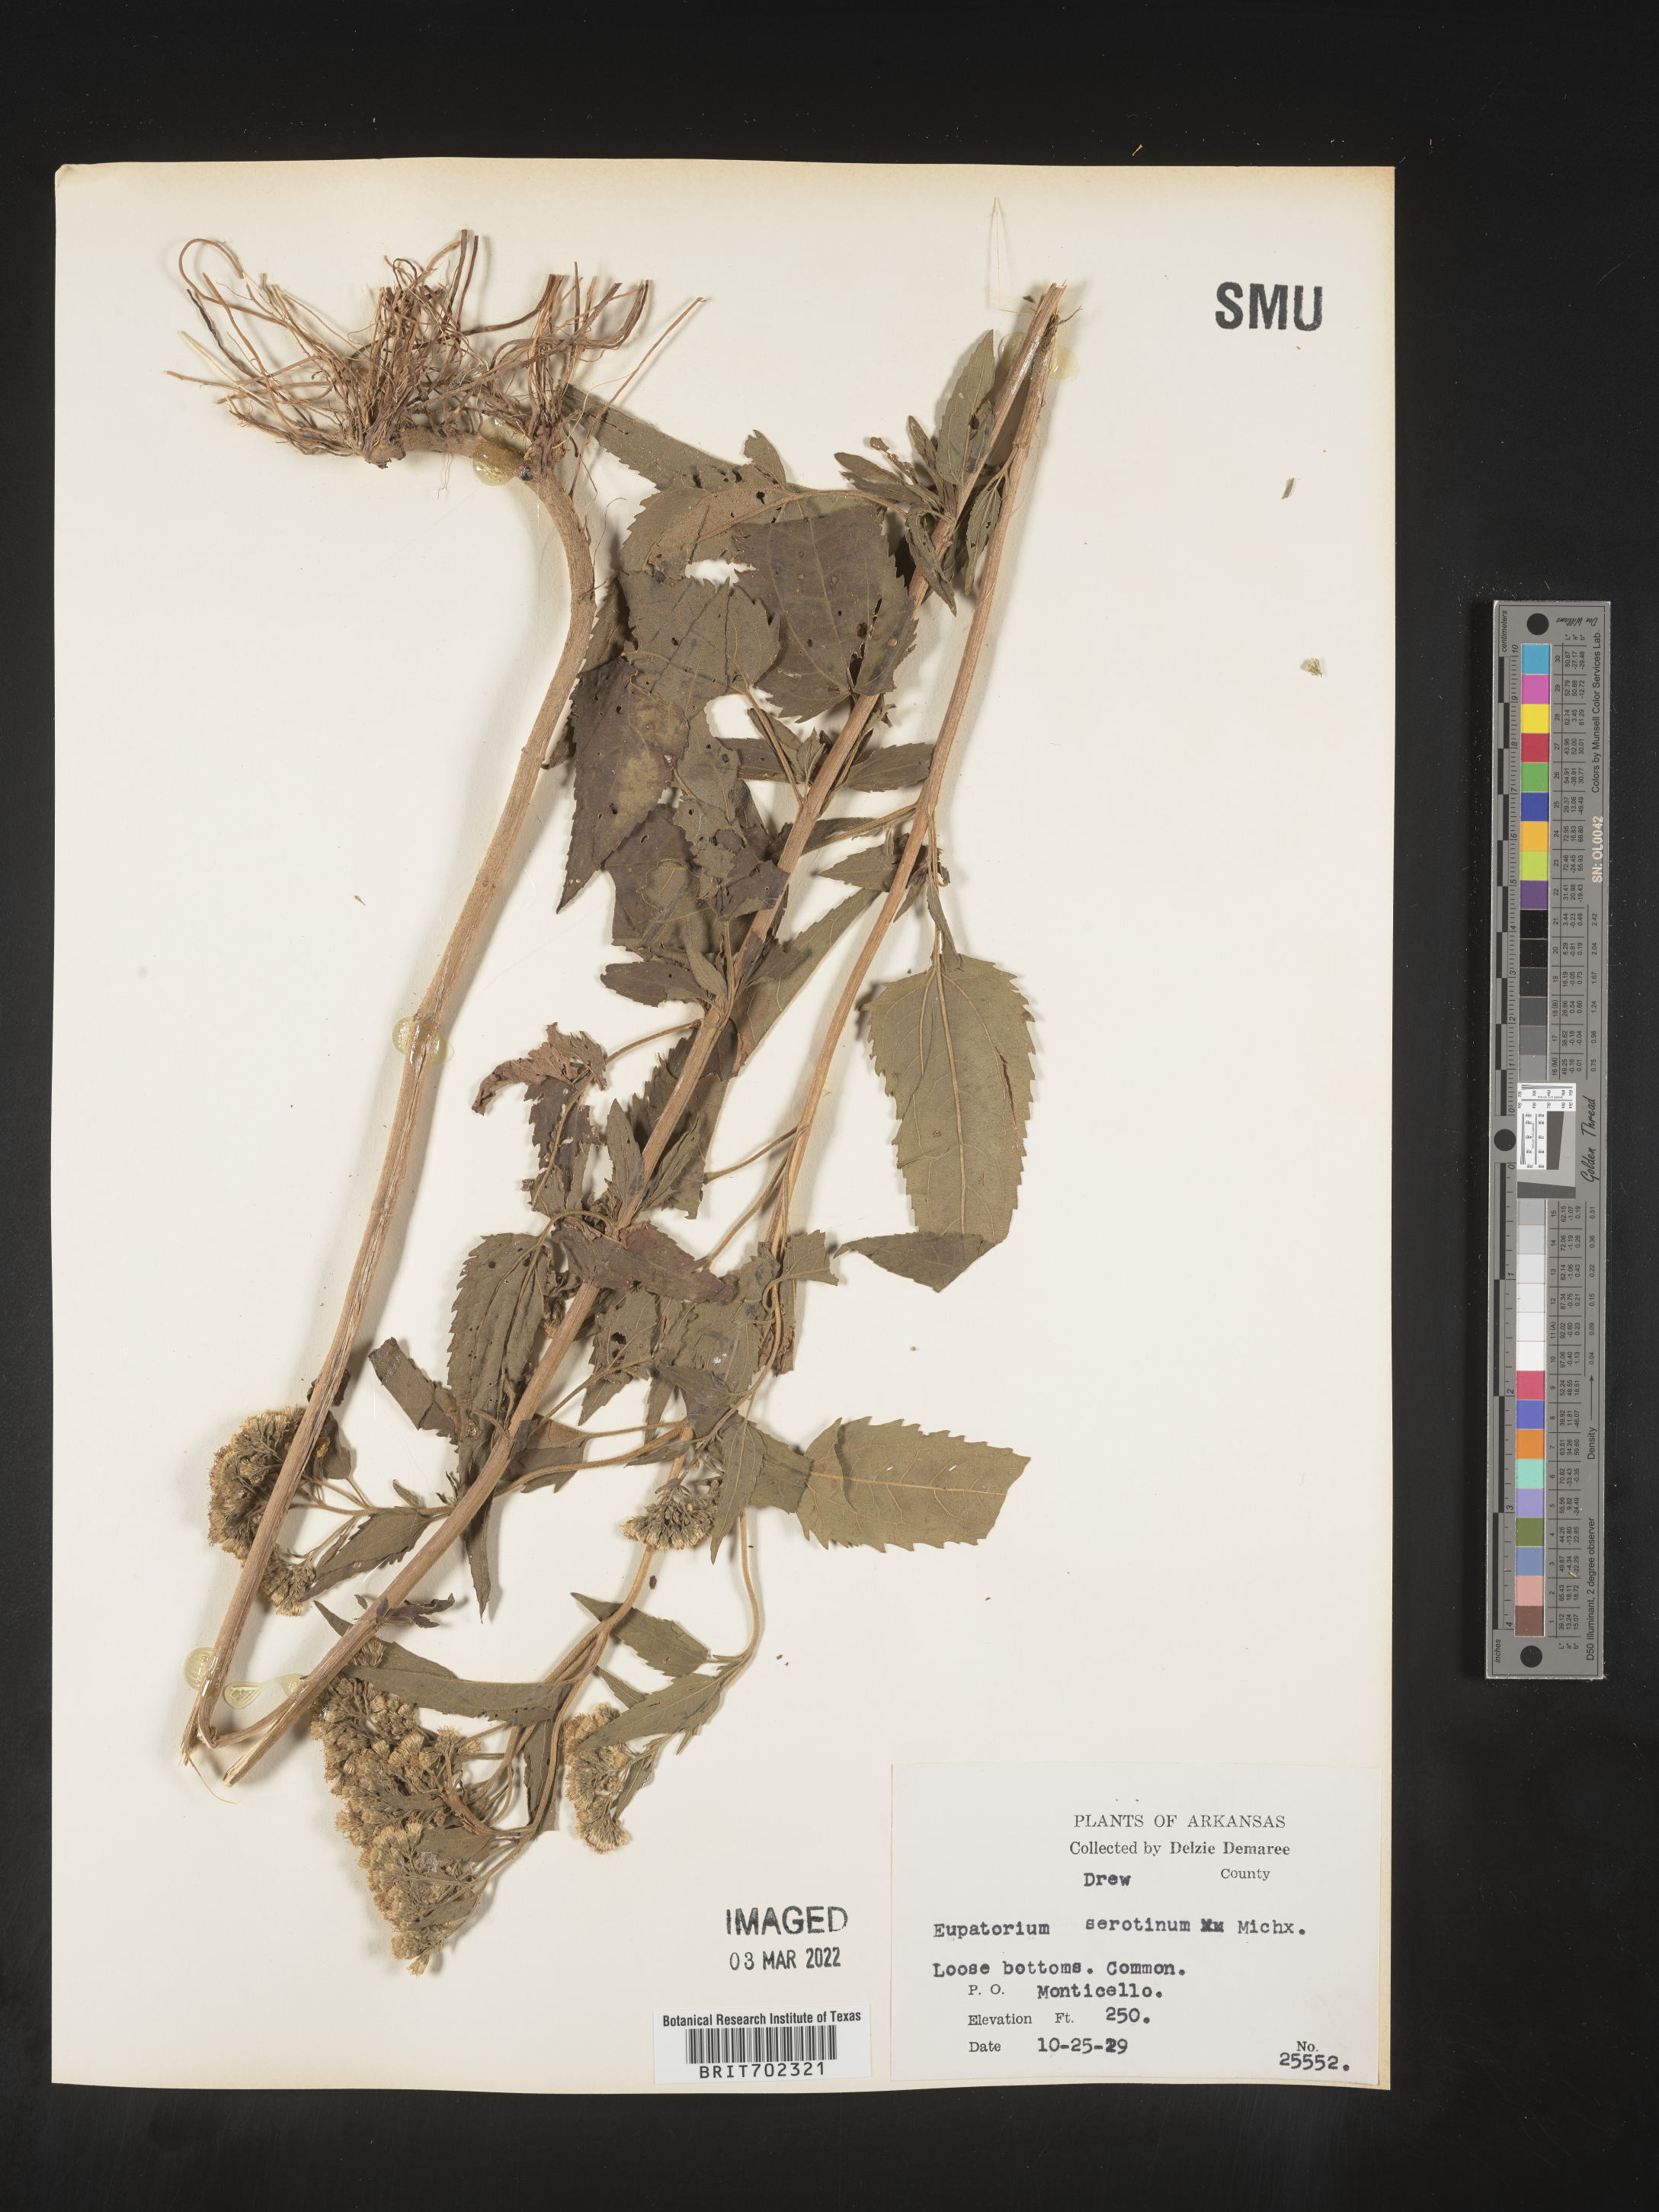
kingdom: Plantae
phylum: Tracheophyta
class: Magnoliopsida
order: Asterales
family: Asteraceae
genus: Eupatorium
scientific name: Eupatorium serotinum
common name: Late boneset
